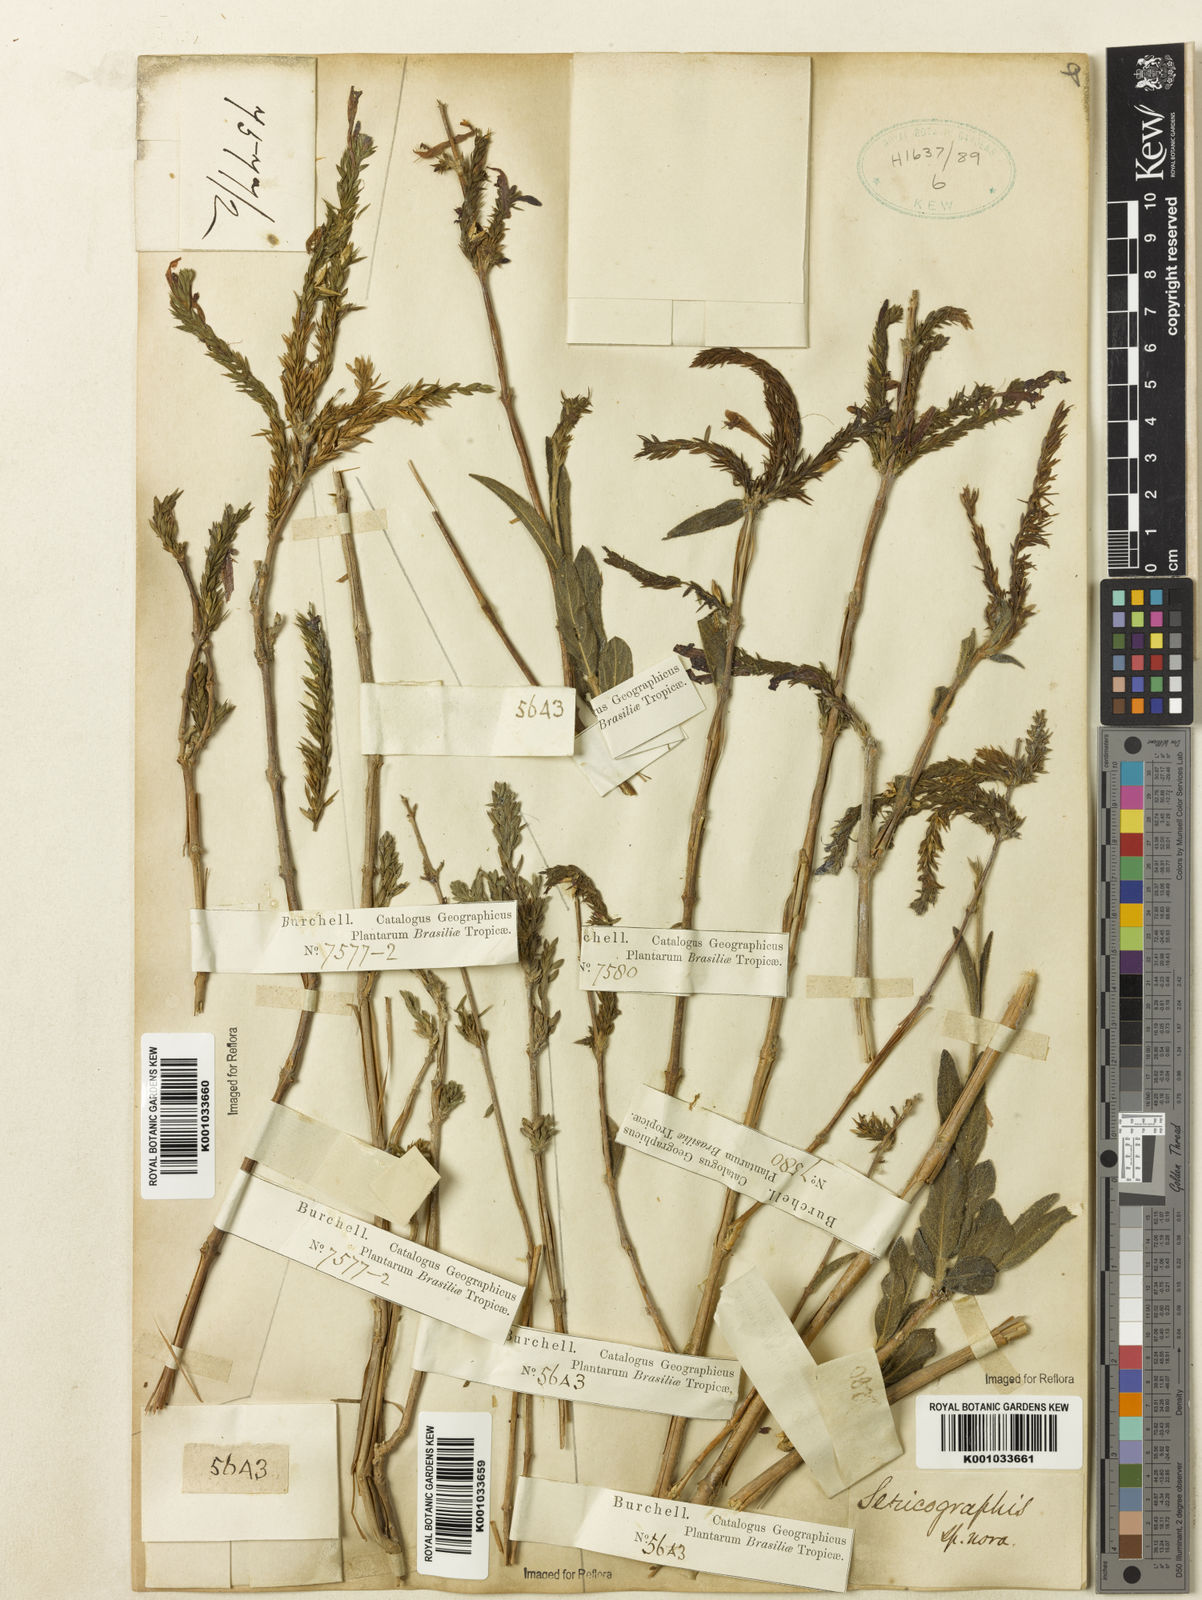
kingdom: Plantae
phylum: Tracheophyta
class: Magnoliopsida
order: Lamiales
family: Acanthaceae
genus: Justicia
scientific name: Justicia
